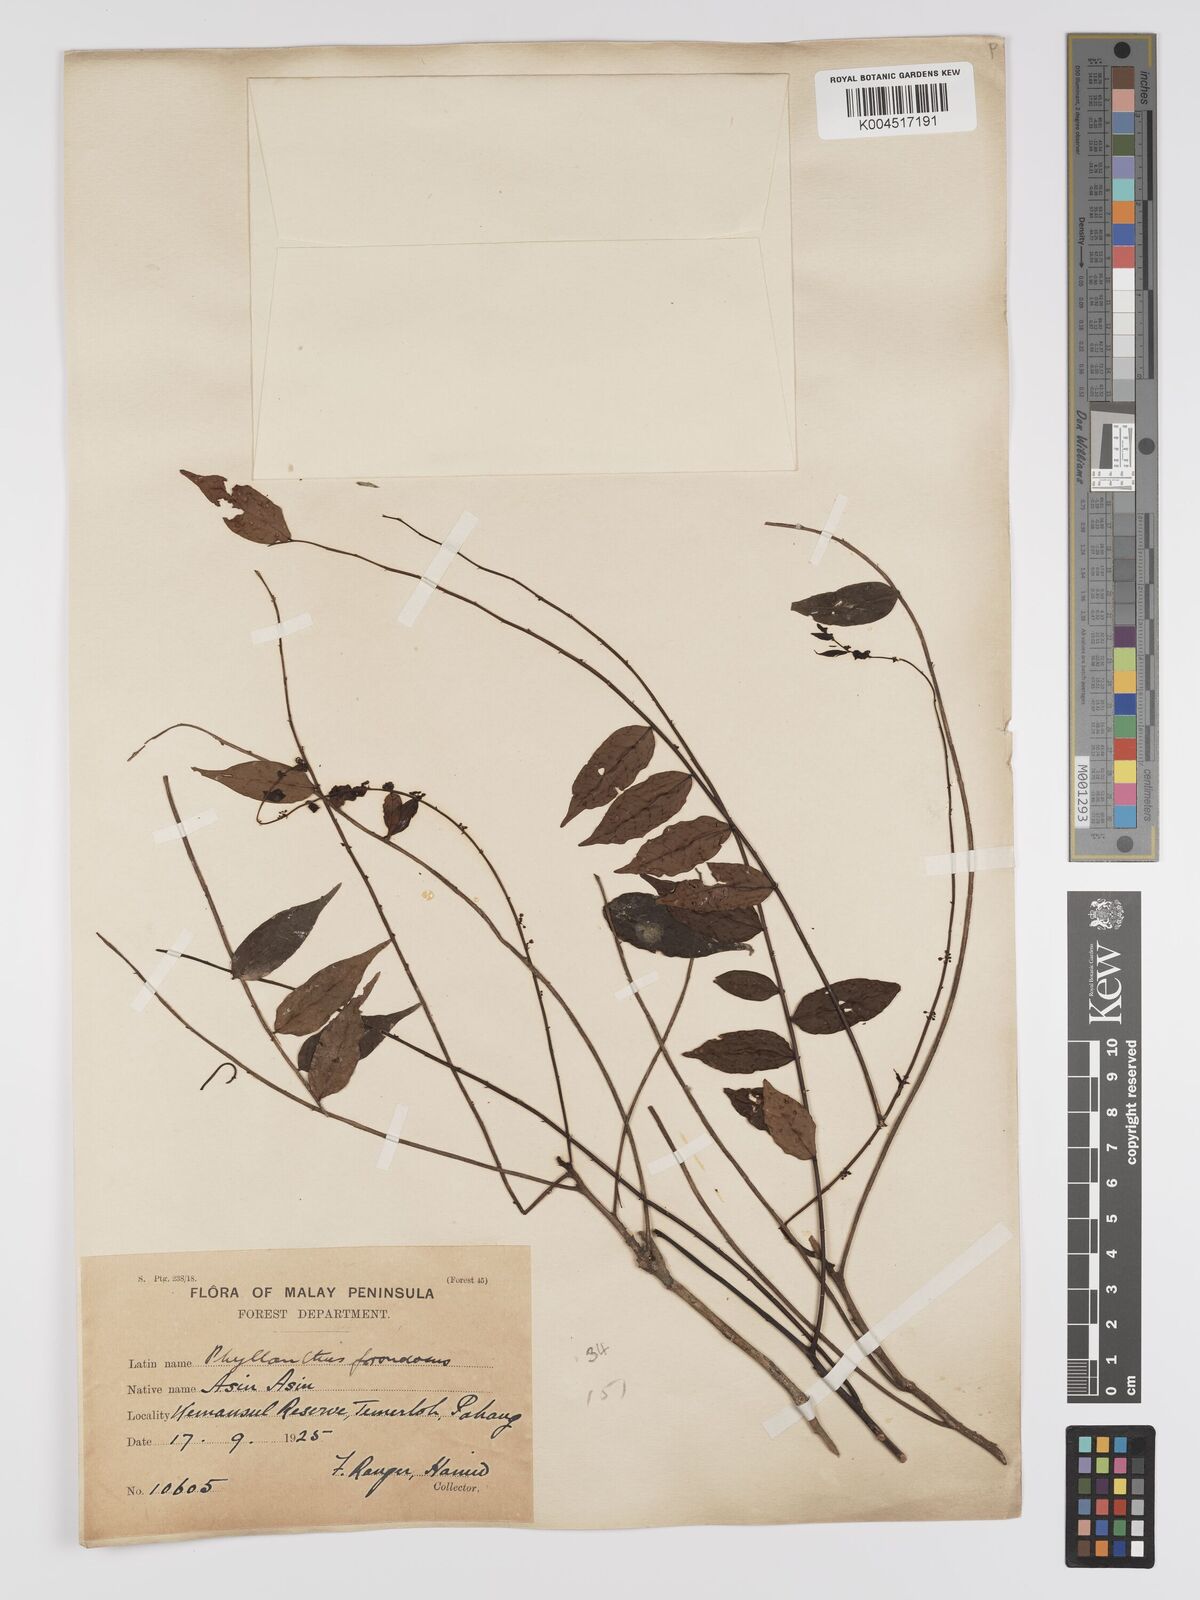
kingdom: Plantae
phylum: Tracheophyta
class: Magnoliopsida
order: Malpighiales
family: Phyllanthaceae
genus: Phyllanthus
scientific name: Phyllanthus
